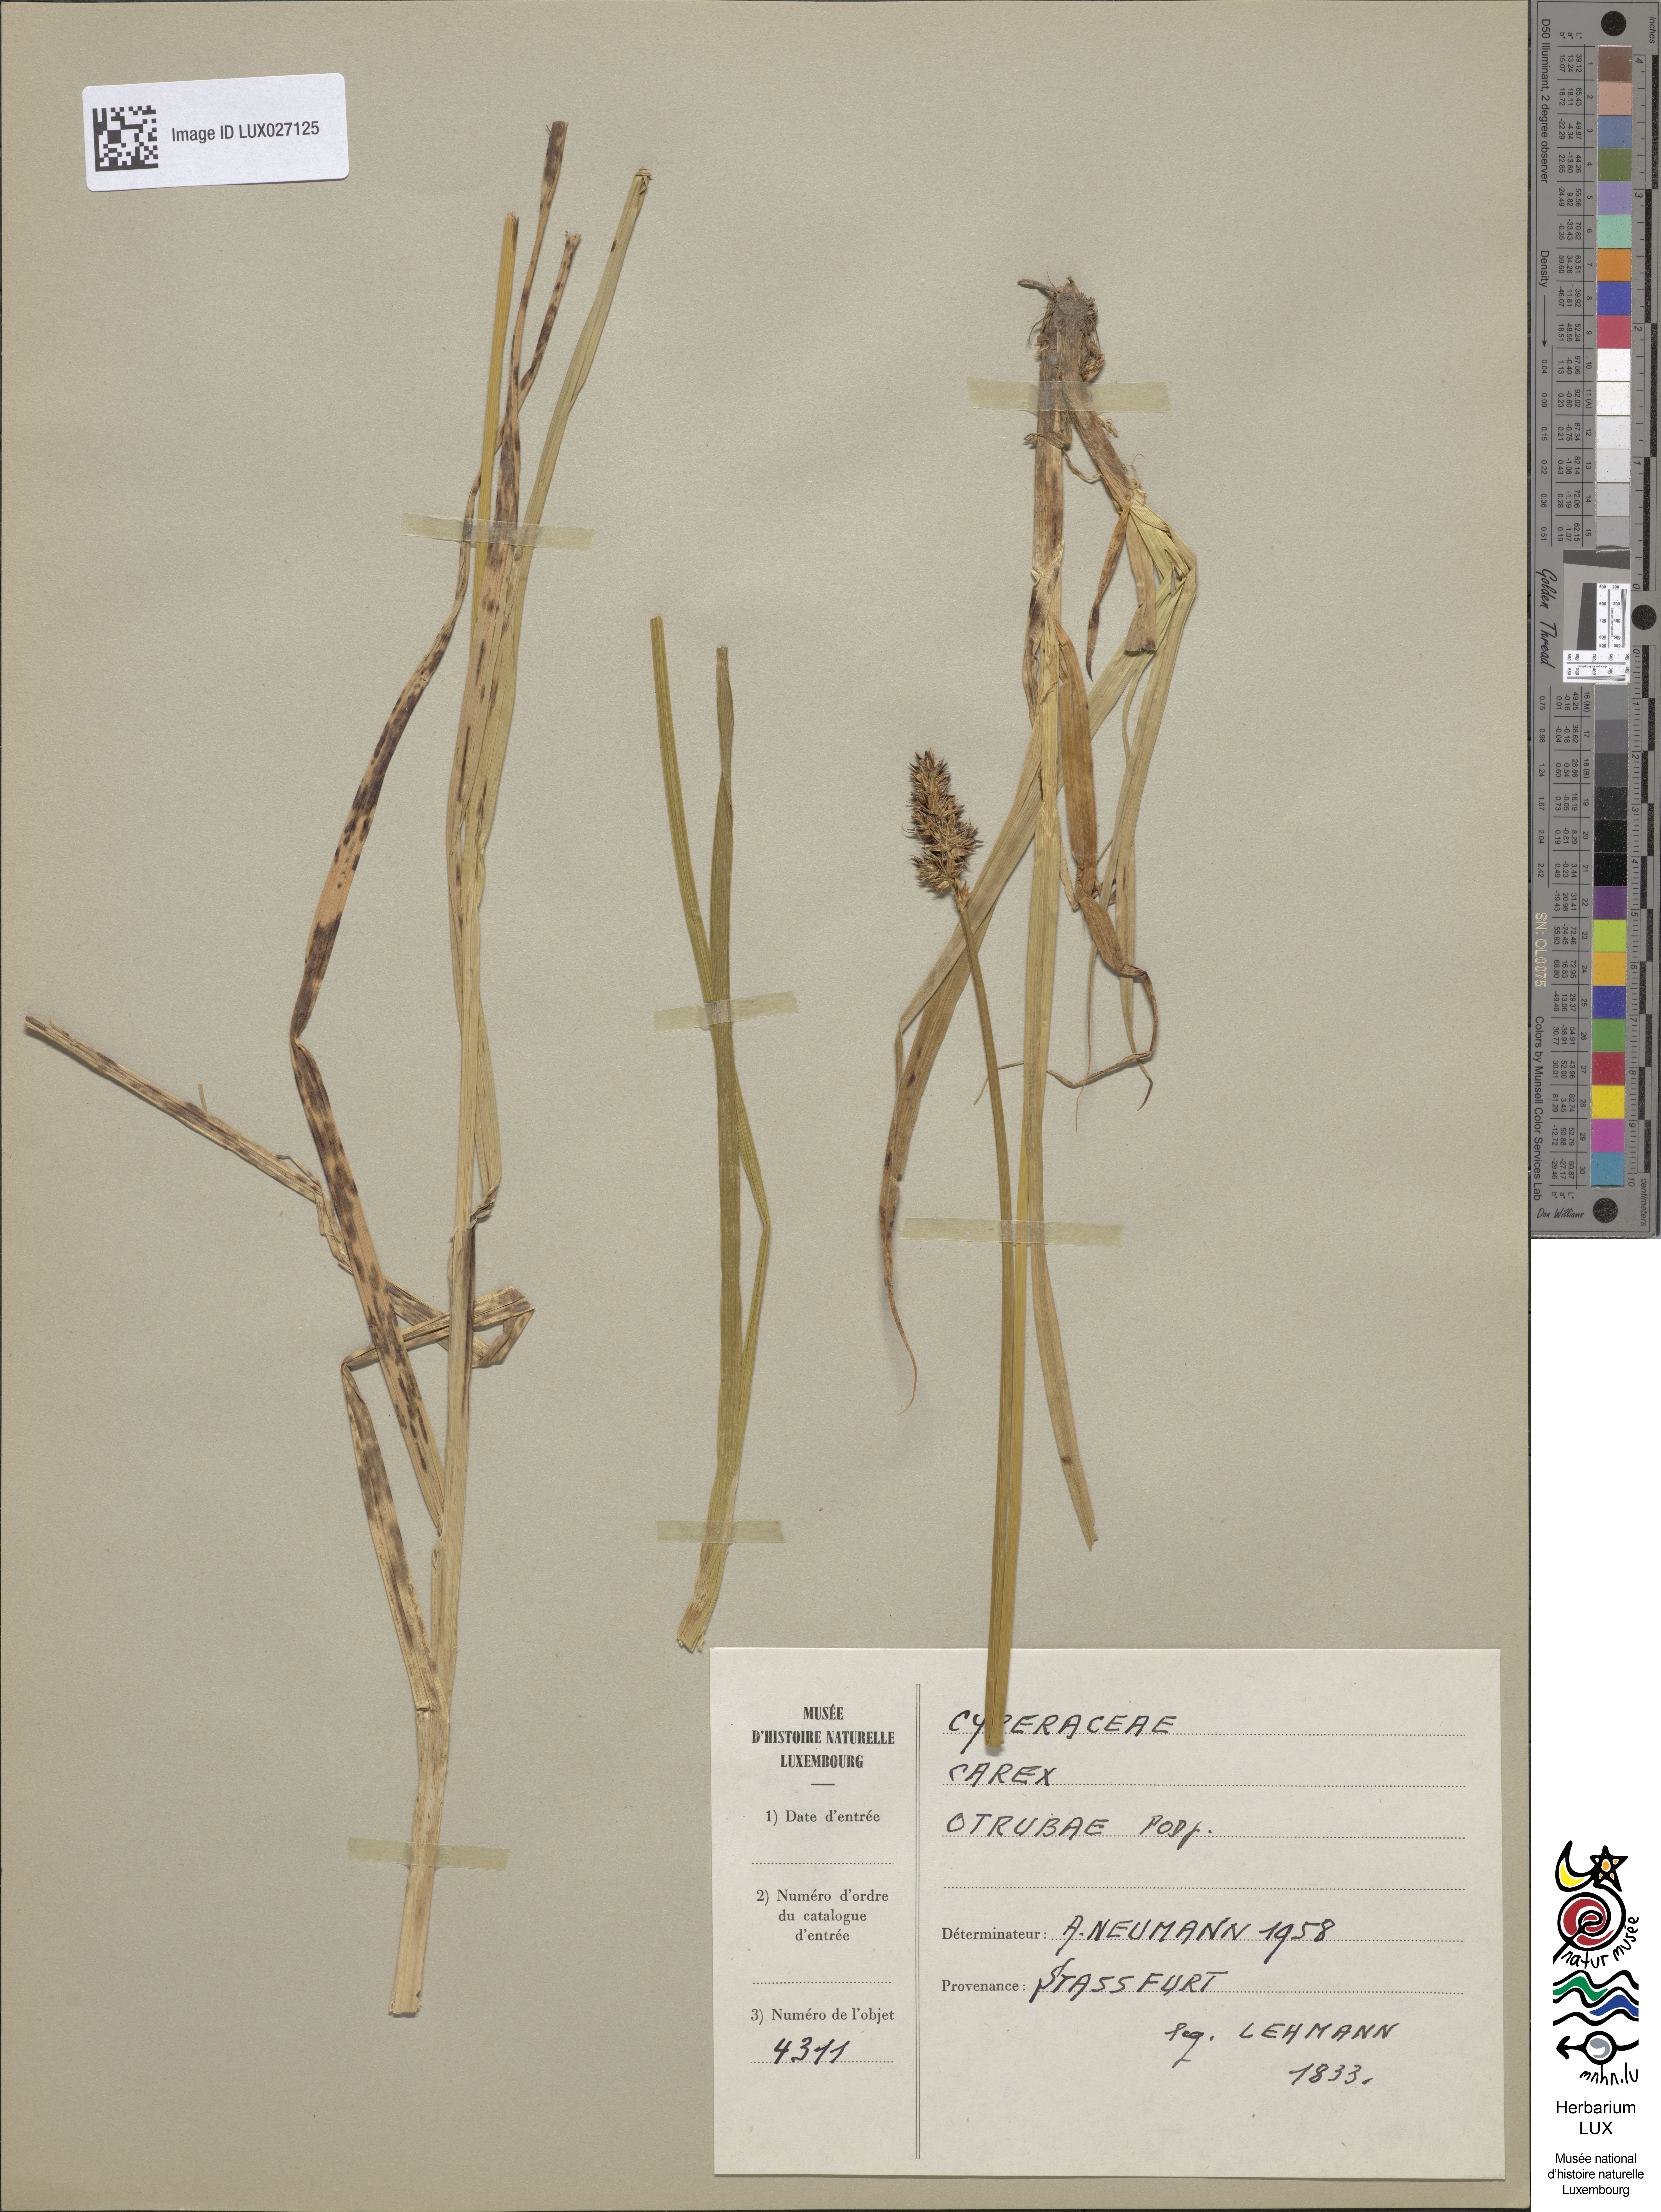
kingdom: Plantae
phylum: Tracheophyta
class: Liliopsida
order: Poales
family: Cyperaceae
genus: Carex
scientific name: Carex otrubae
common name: False fox-sedge
